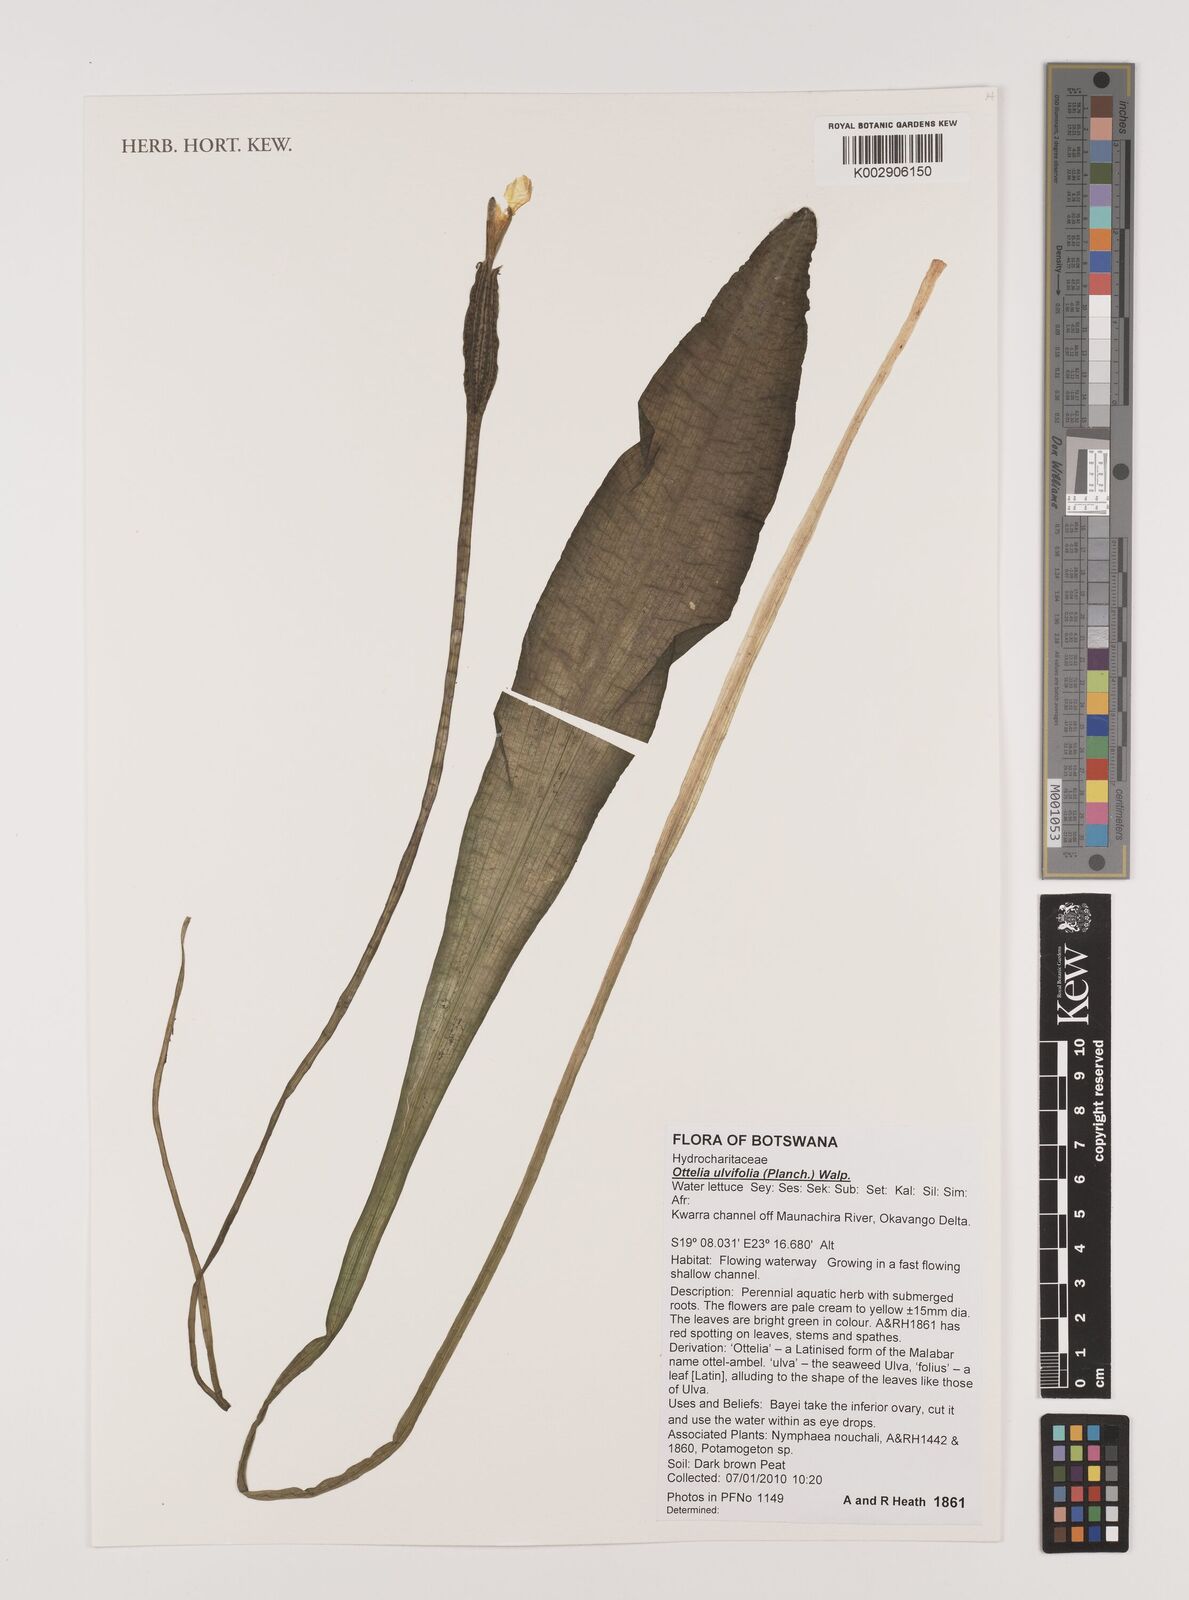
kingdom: Plantae
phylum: Tracheophyta
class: Liliopsida
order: Alismatales
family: Hydrocharitaceae
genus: Ottelia
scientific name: Ottelia ulvifolia
